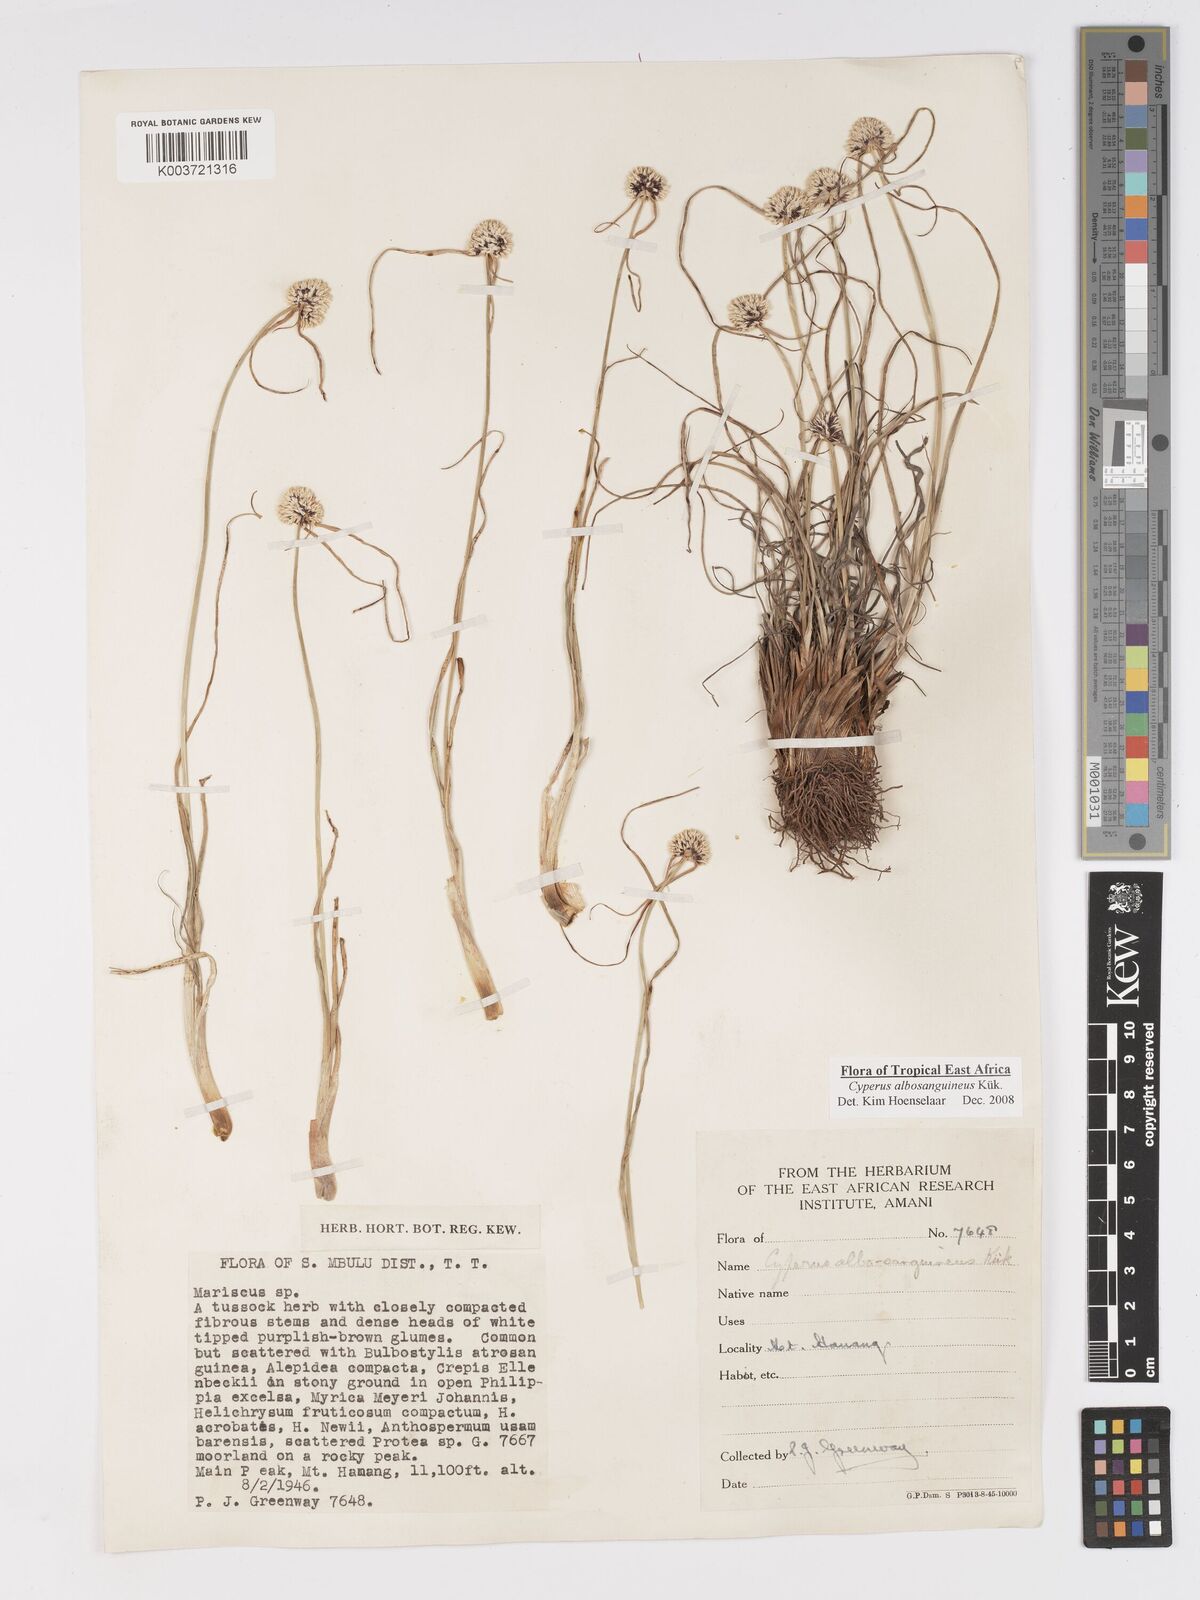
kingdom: Plantae
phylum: Tracheophyta
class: Liliopsida
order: Poales
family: Cyperaceae
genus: Cyperus
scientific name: Cyperus albosanguineus
